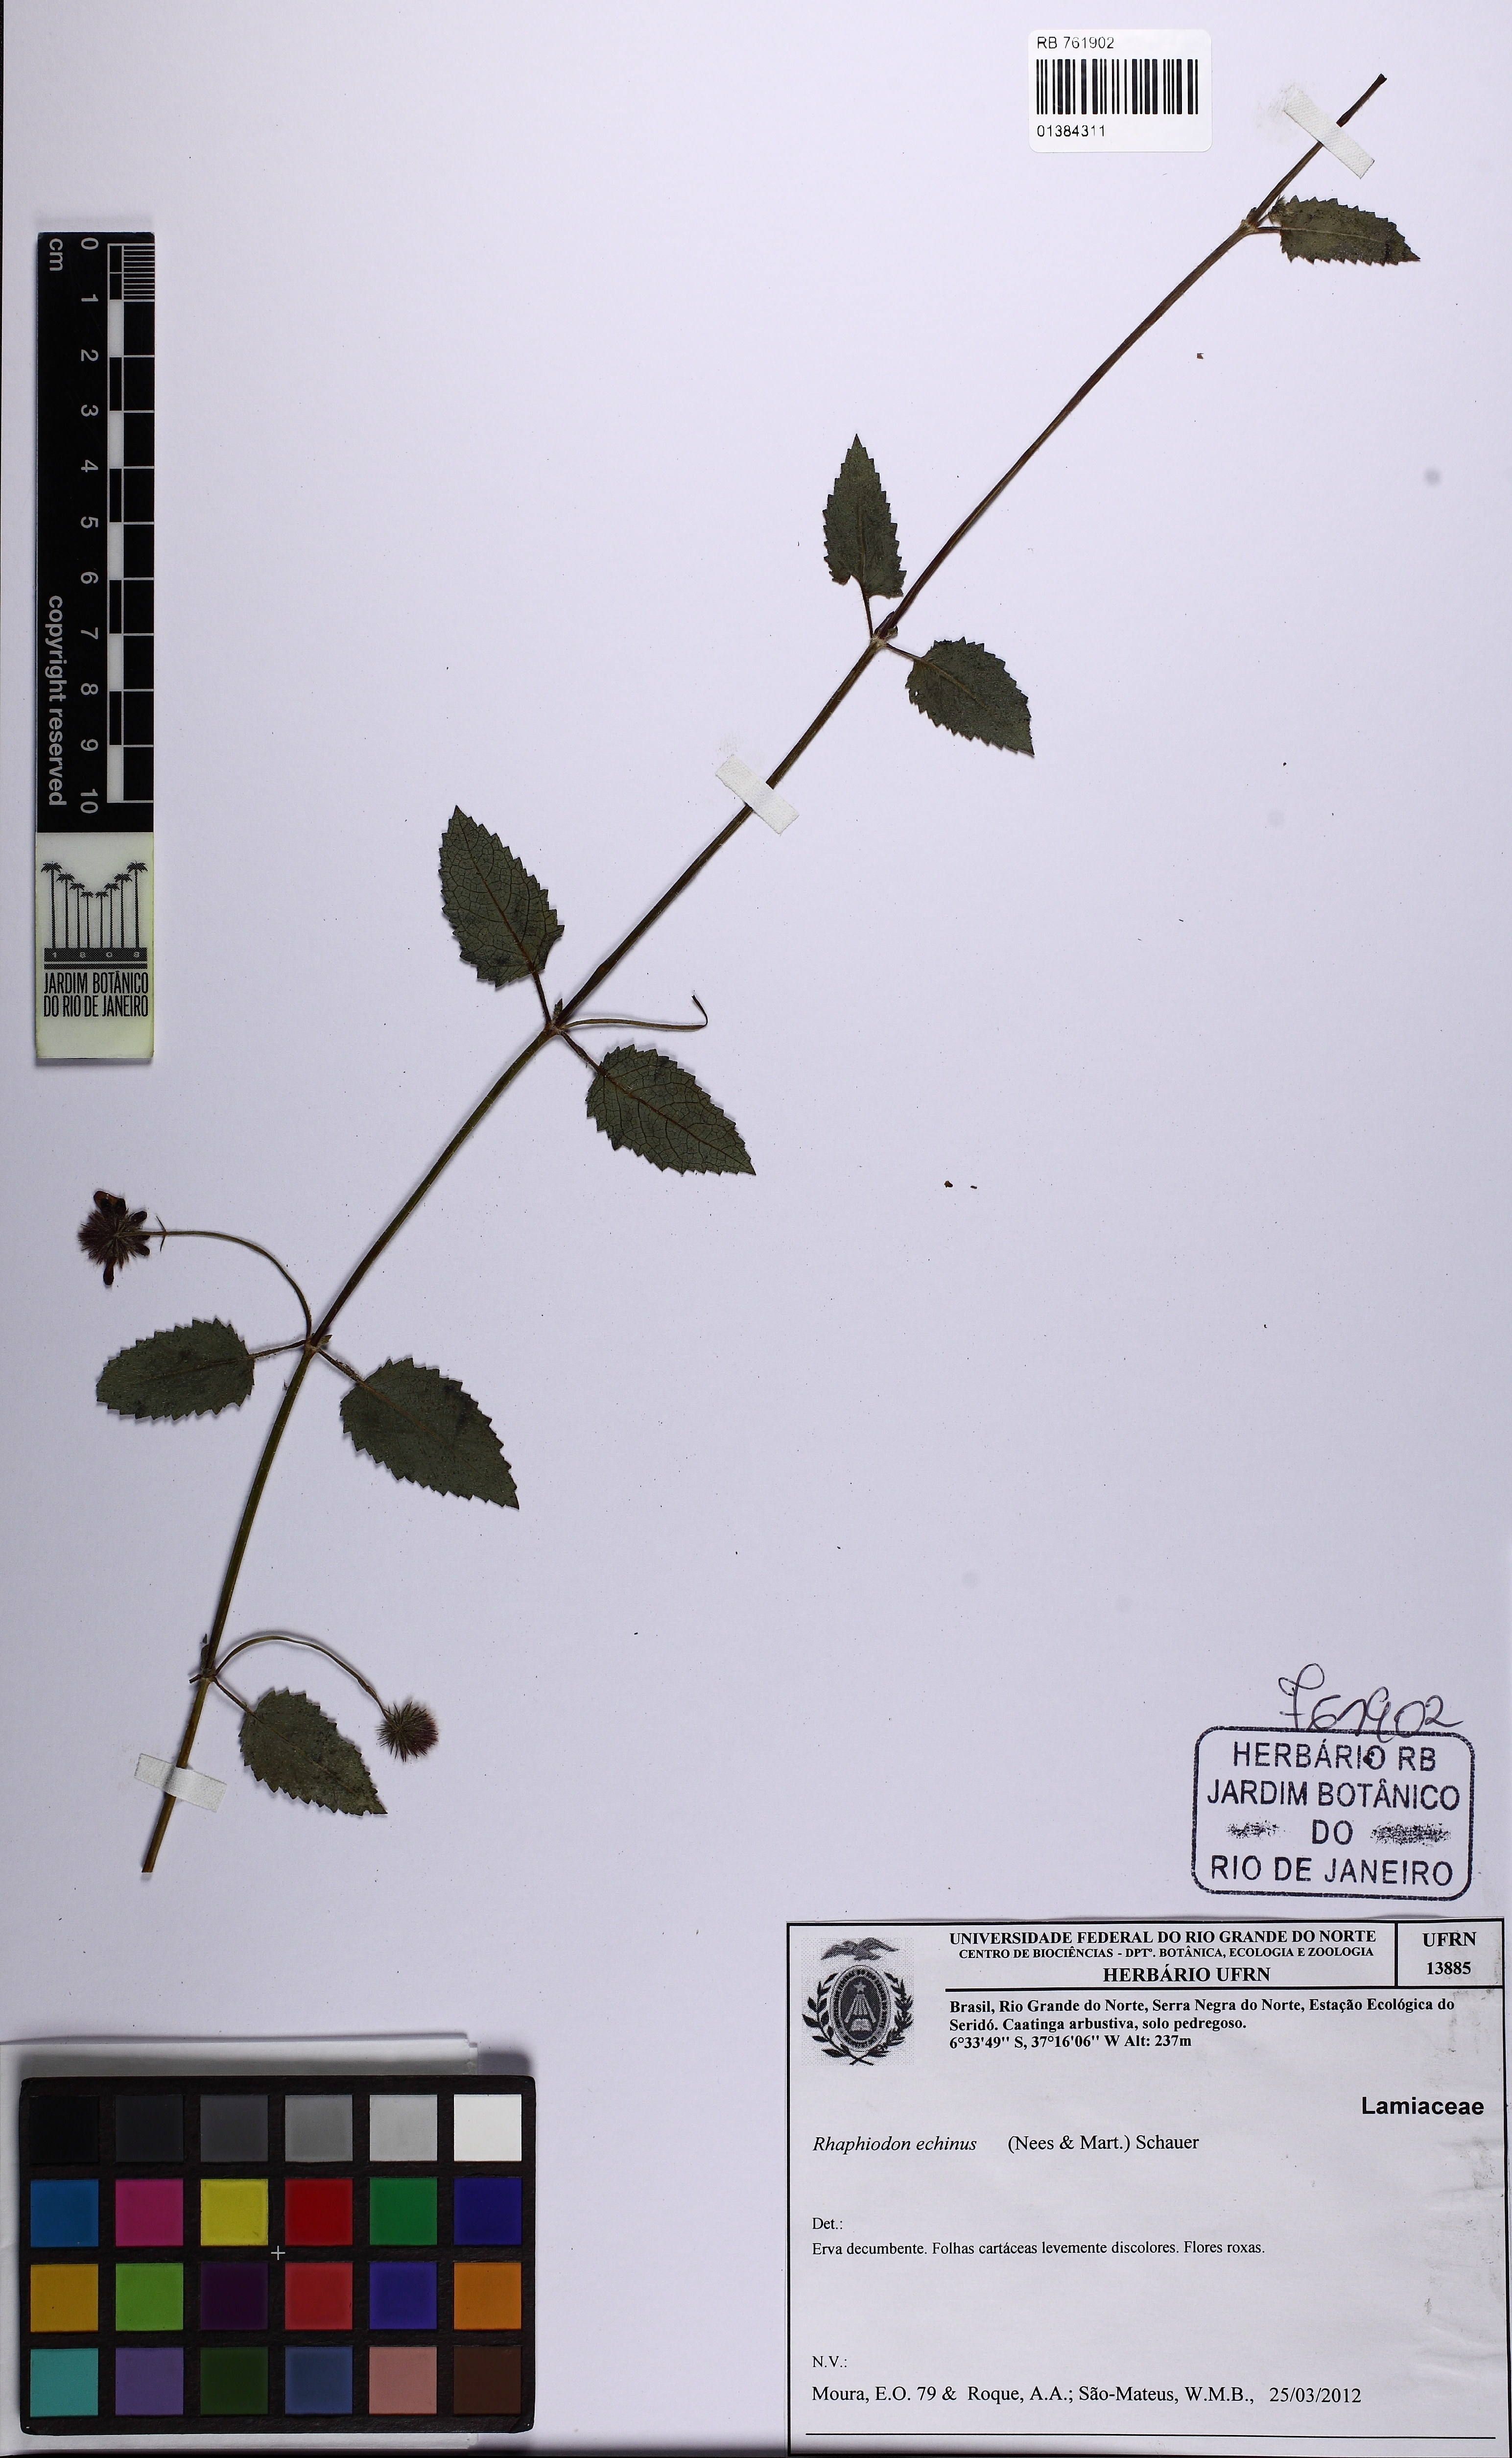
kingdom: Plantae
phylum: Tracheophyta
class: Magnoliopsida
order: Lamiales
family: Lamiaceae
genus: Rhaphiodon
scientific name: Rhaphiodon echinus
